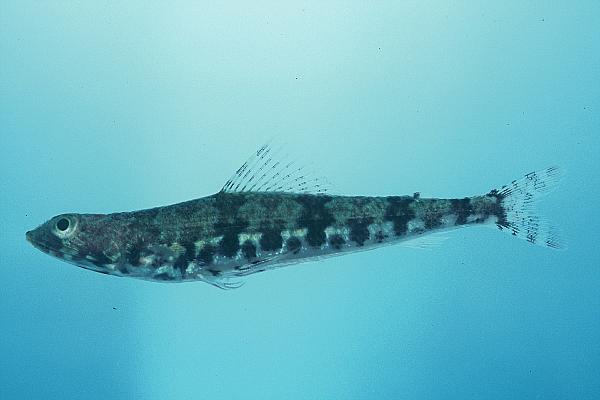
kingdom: Animalia
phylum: Chordata
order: Aulopiformes
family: Synodontidae
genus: Synodus
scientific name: Synodus
